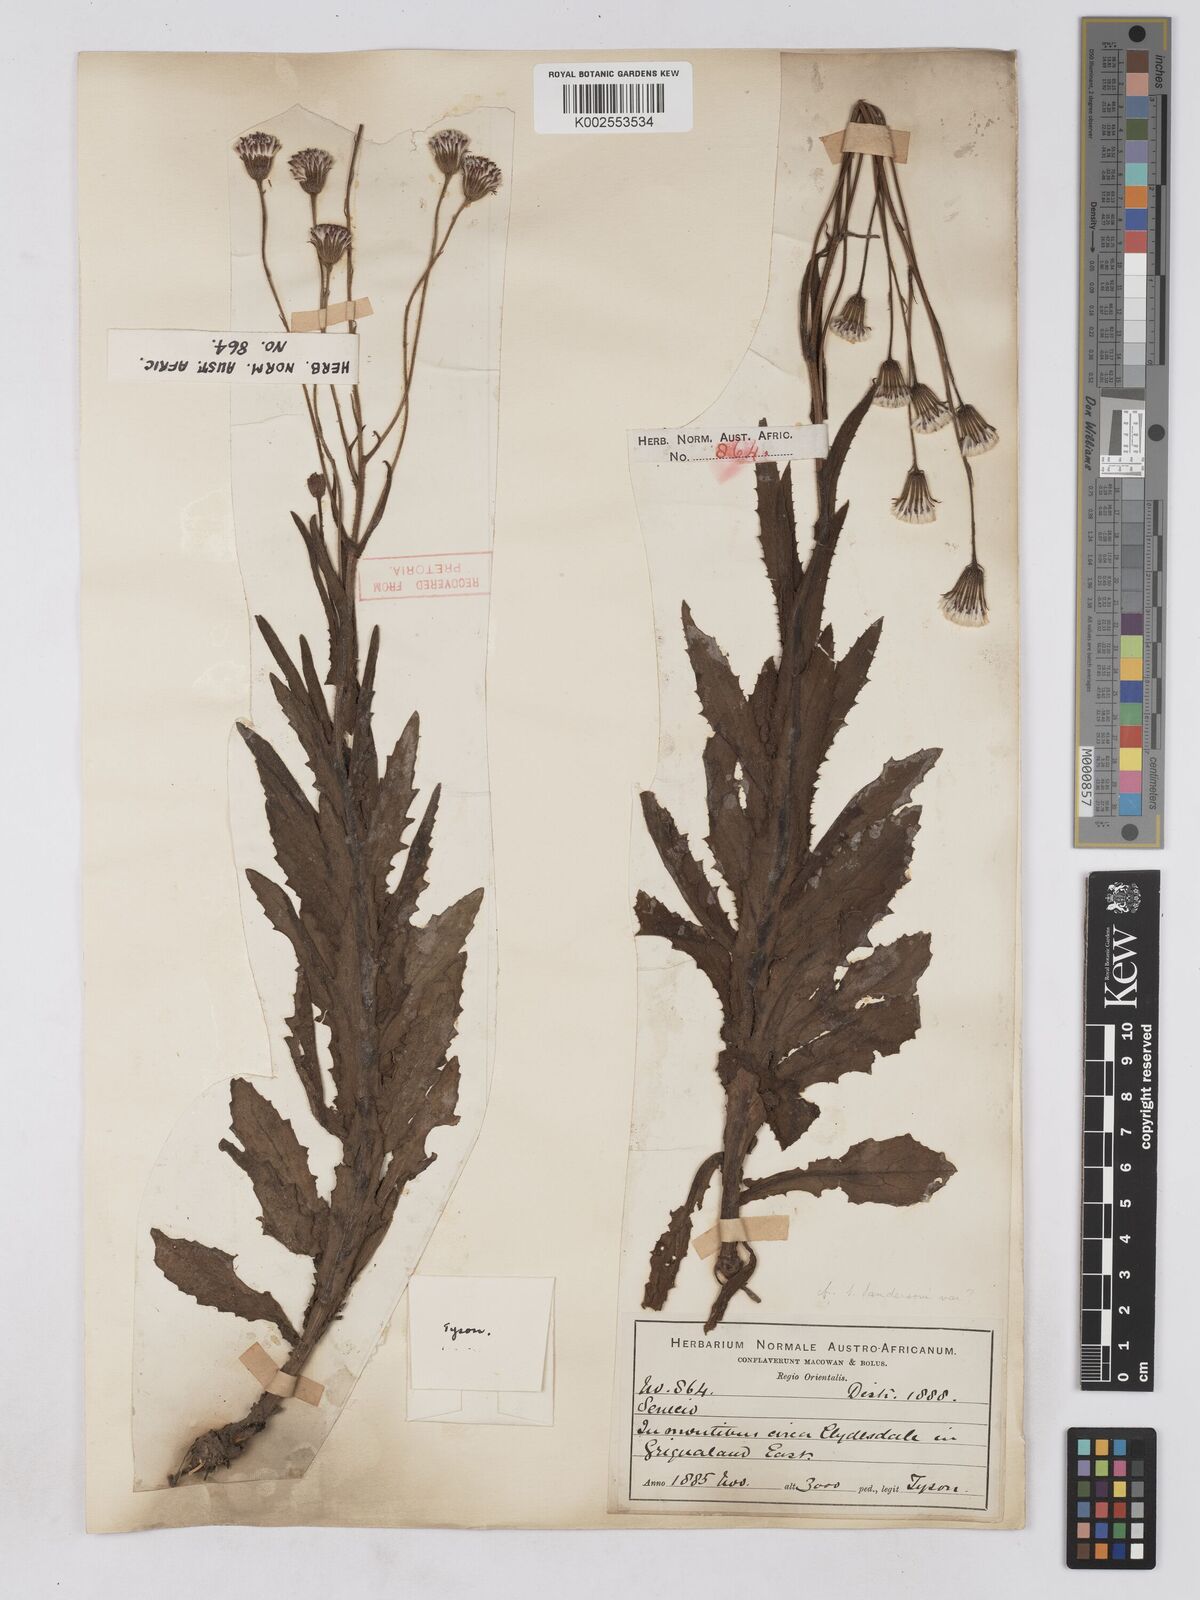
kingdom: Plantae
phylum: Tracheophyta
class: Magnoliopsida
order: Asterales
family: Asteraceae
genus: Senecio
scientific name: Senecio sandersonii
